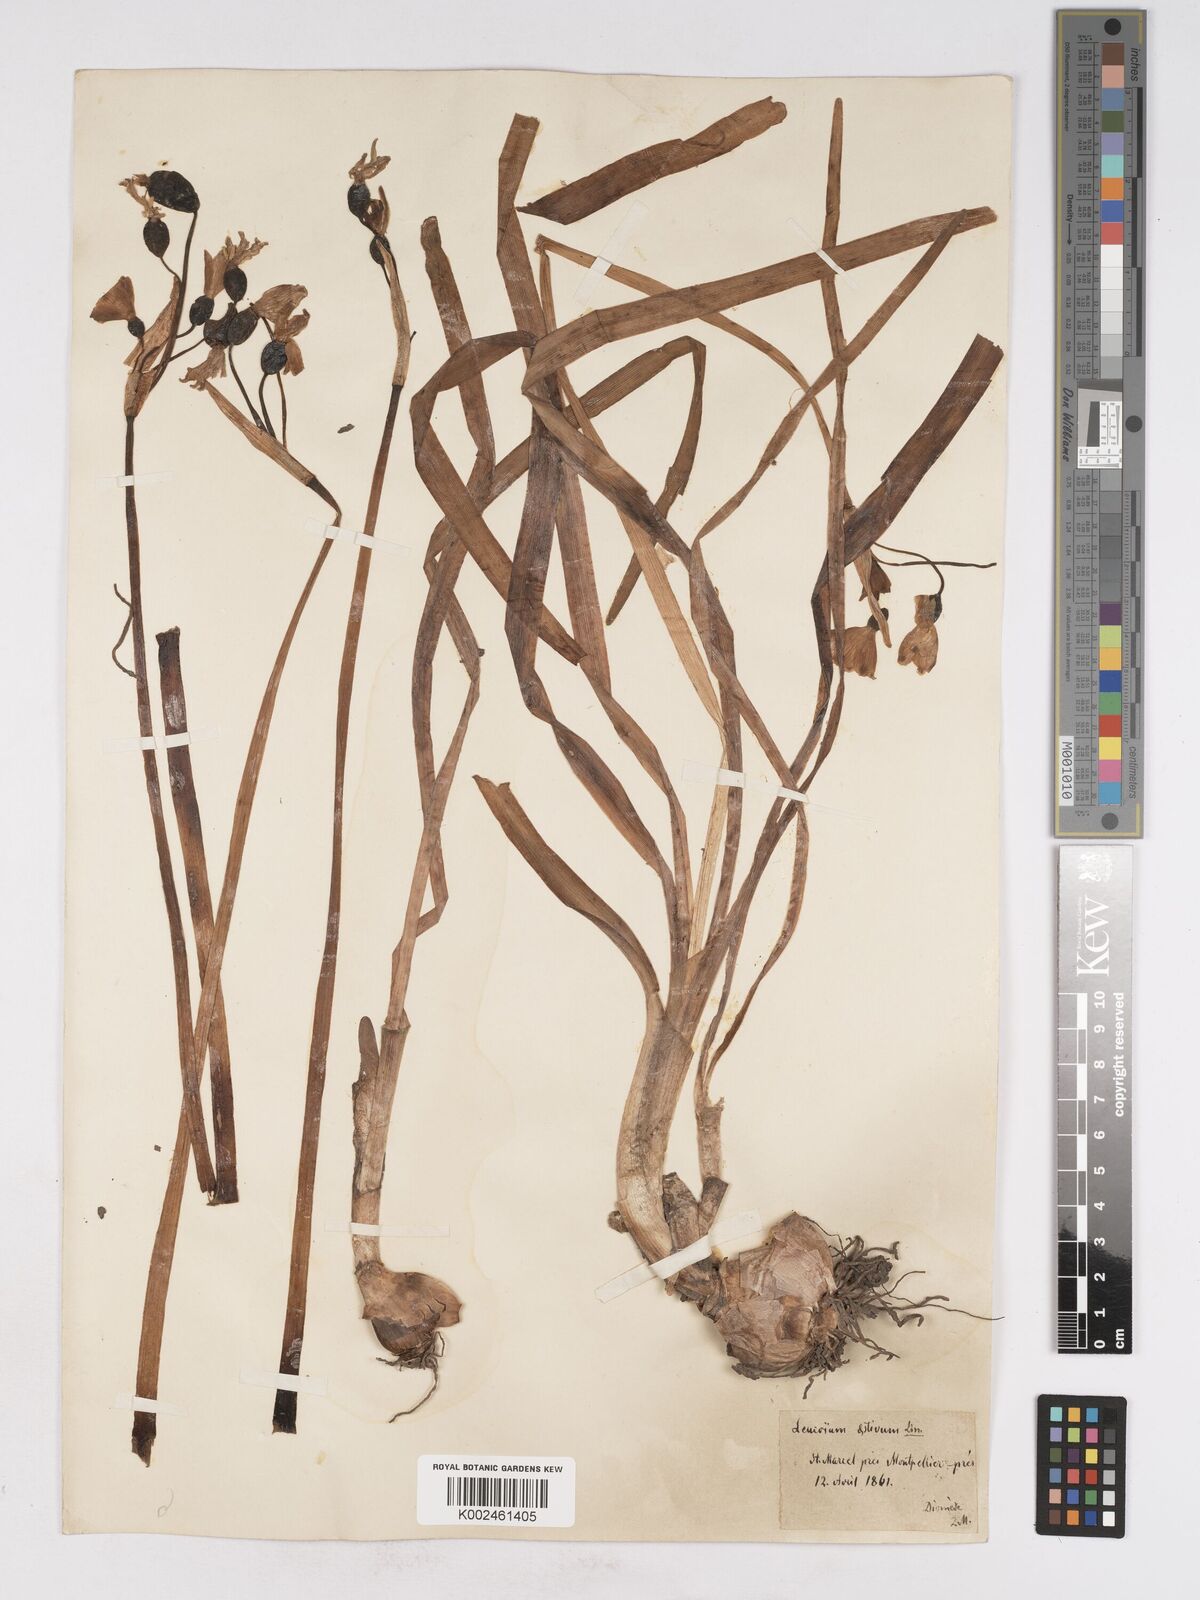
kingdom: Plantae
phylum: Tracheophyta
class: Liliopsida
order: Asparagales
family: Amaryllidaceae
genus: Leucojum
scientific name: Leucojum aestivum
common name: Summer snowflake
